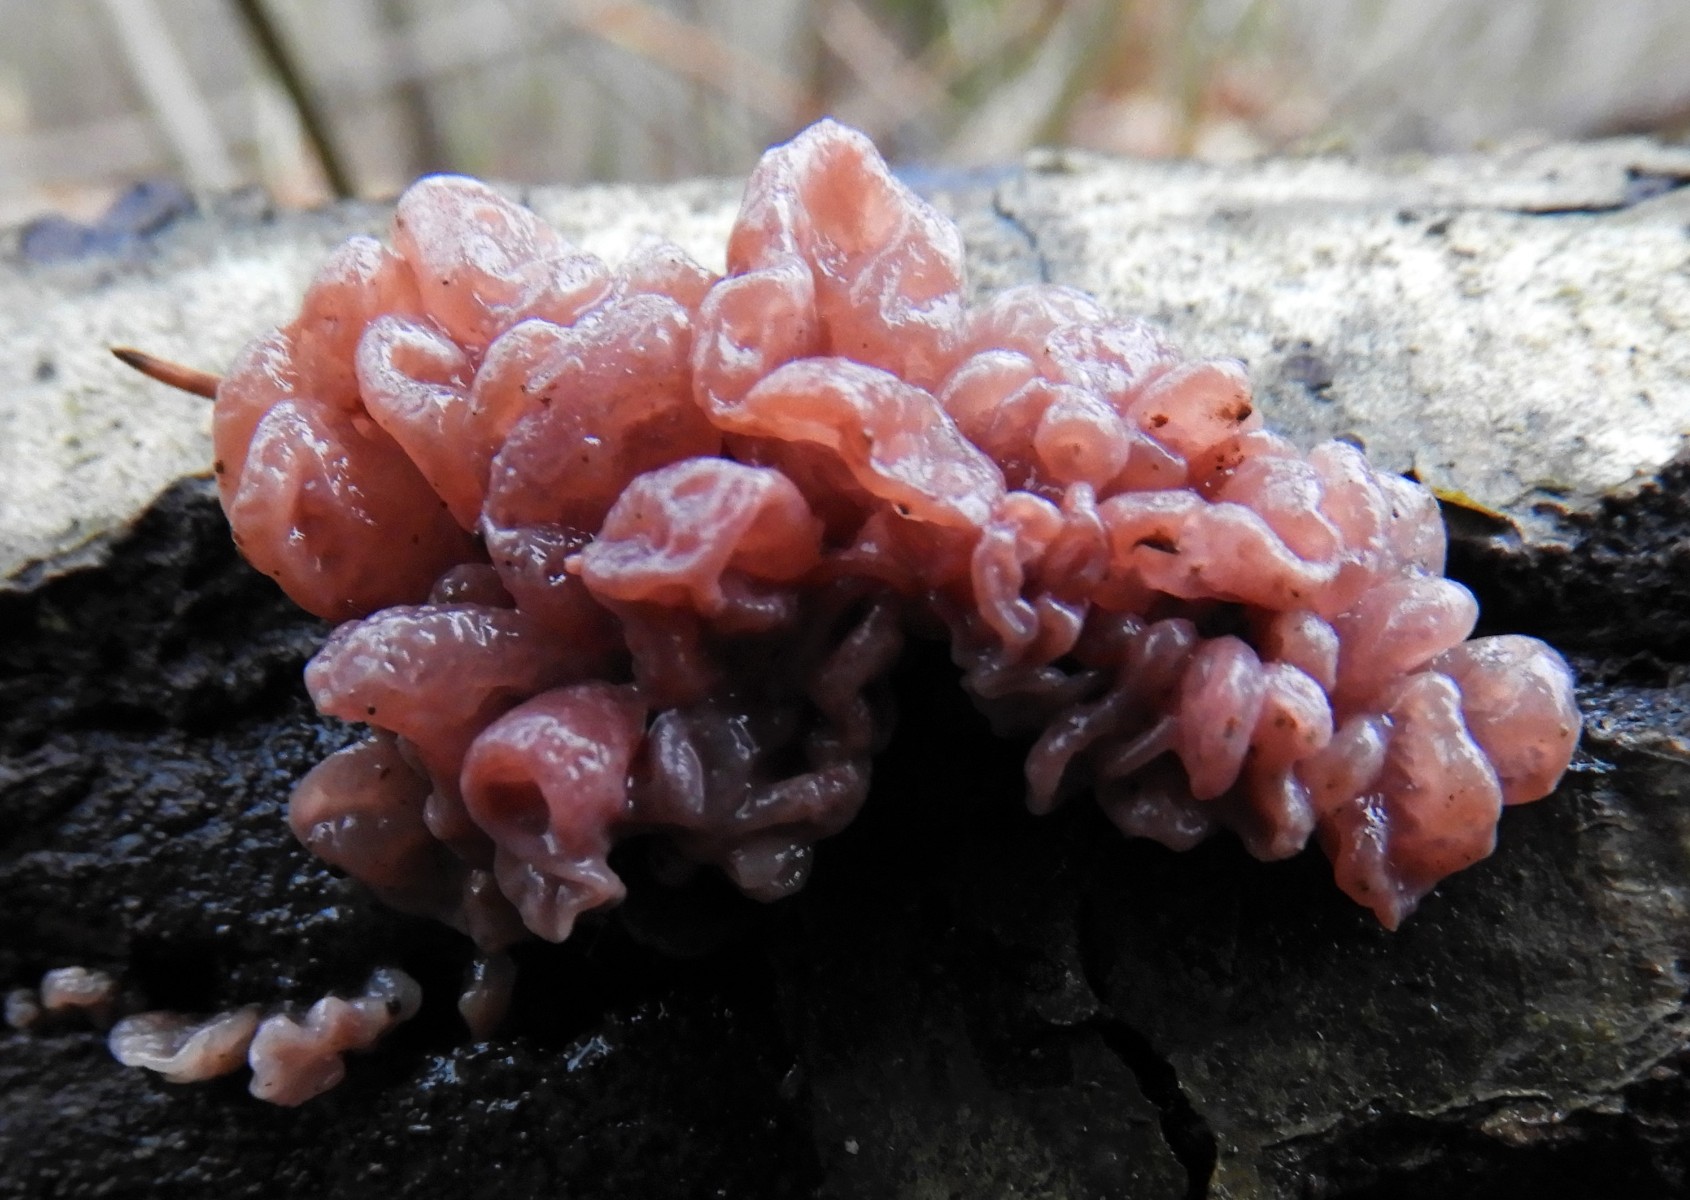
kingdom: Fungi
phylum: Ascomycota
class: Leotiomycetes
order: Helotiales
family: Gelatinodiscaceae
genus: Ascocoryne
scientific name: Ascocoryne sarcoides
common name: rødlilla sejskive
